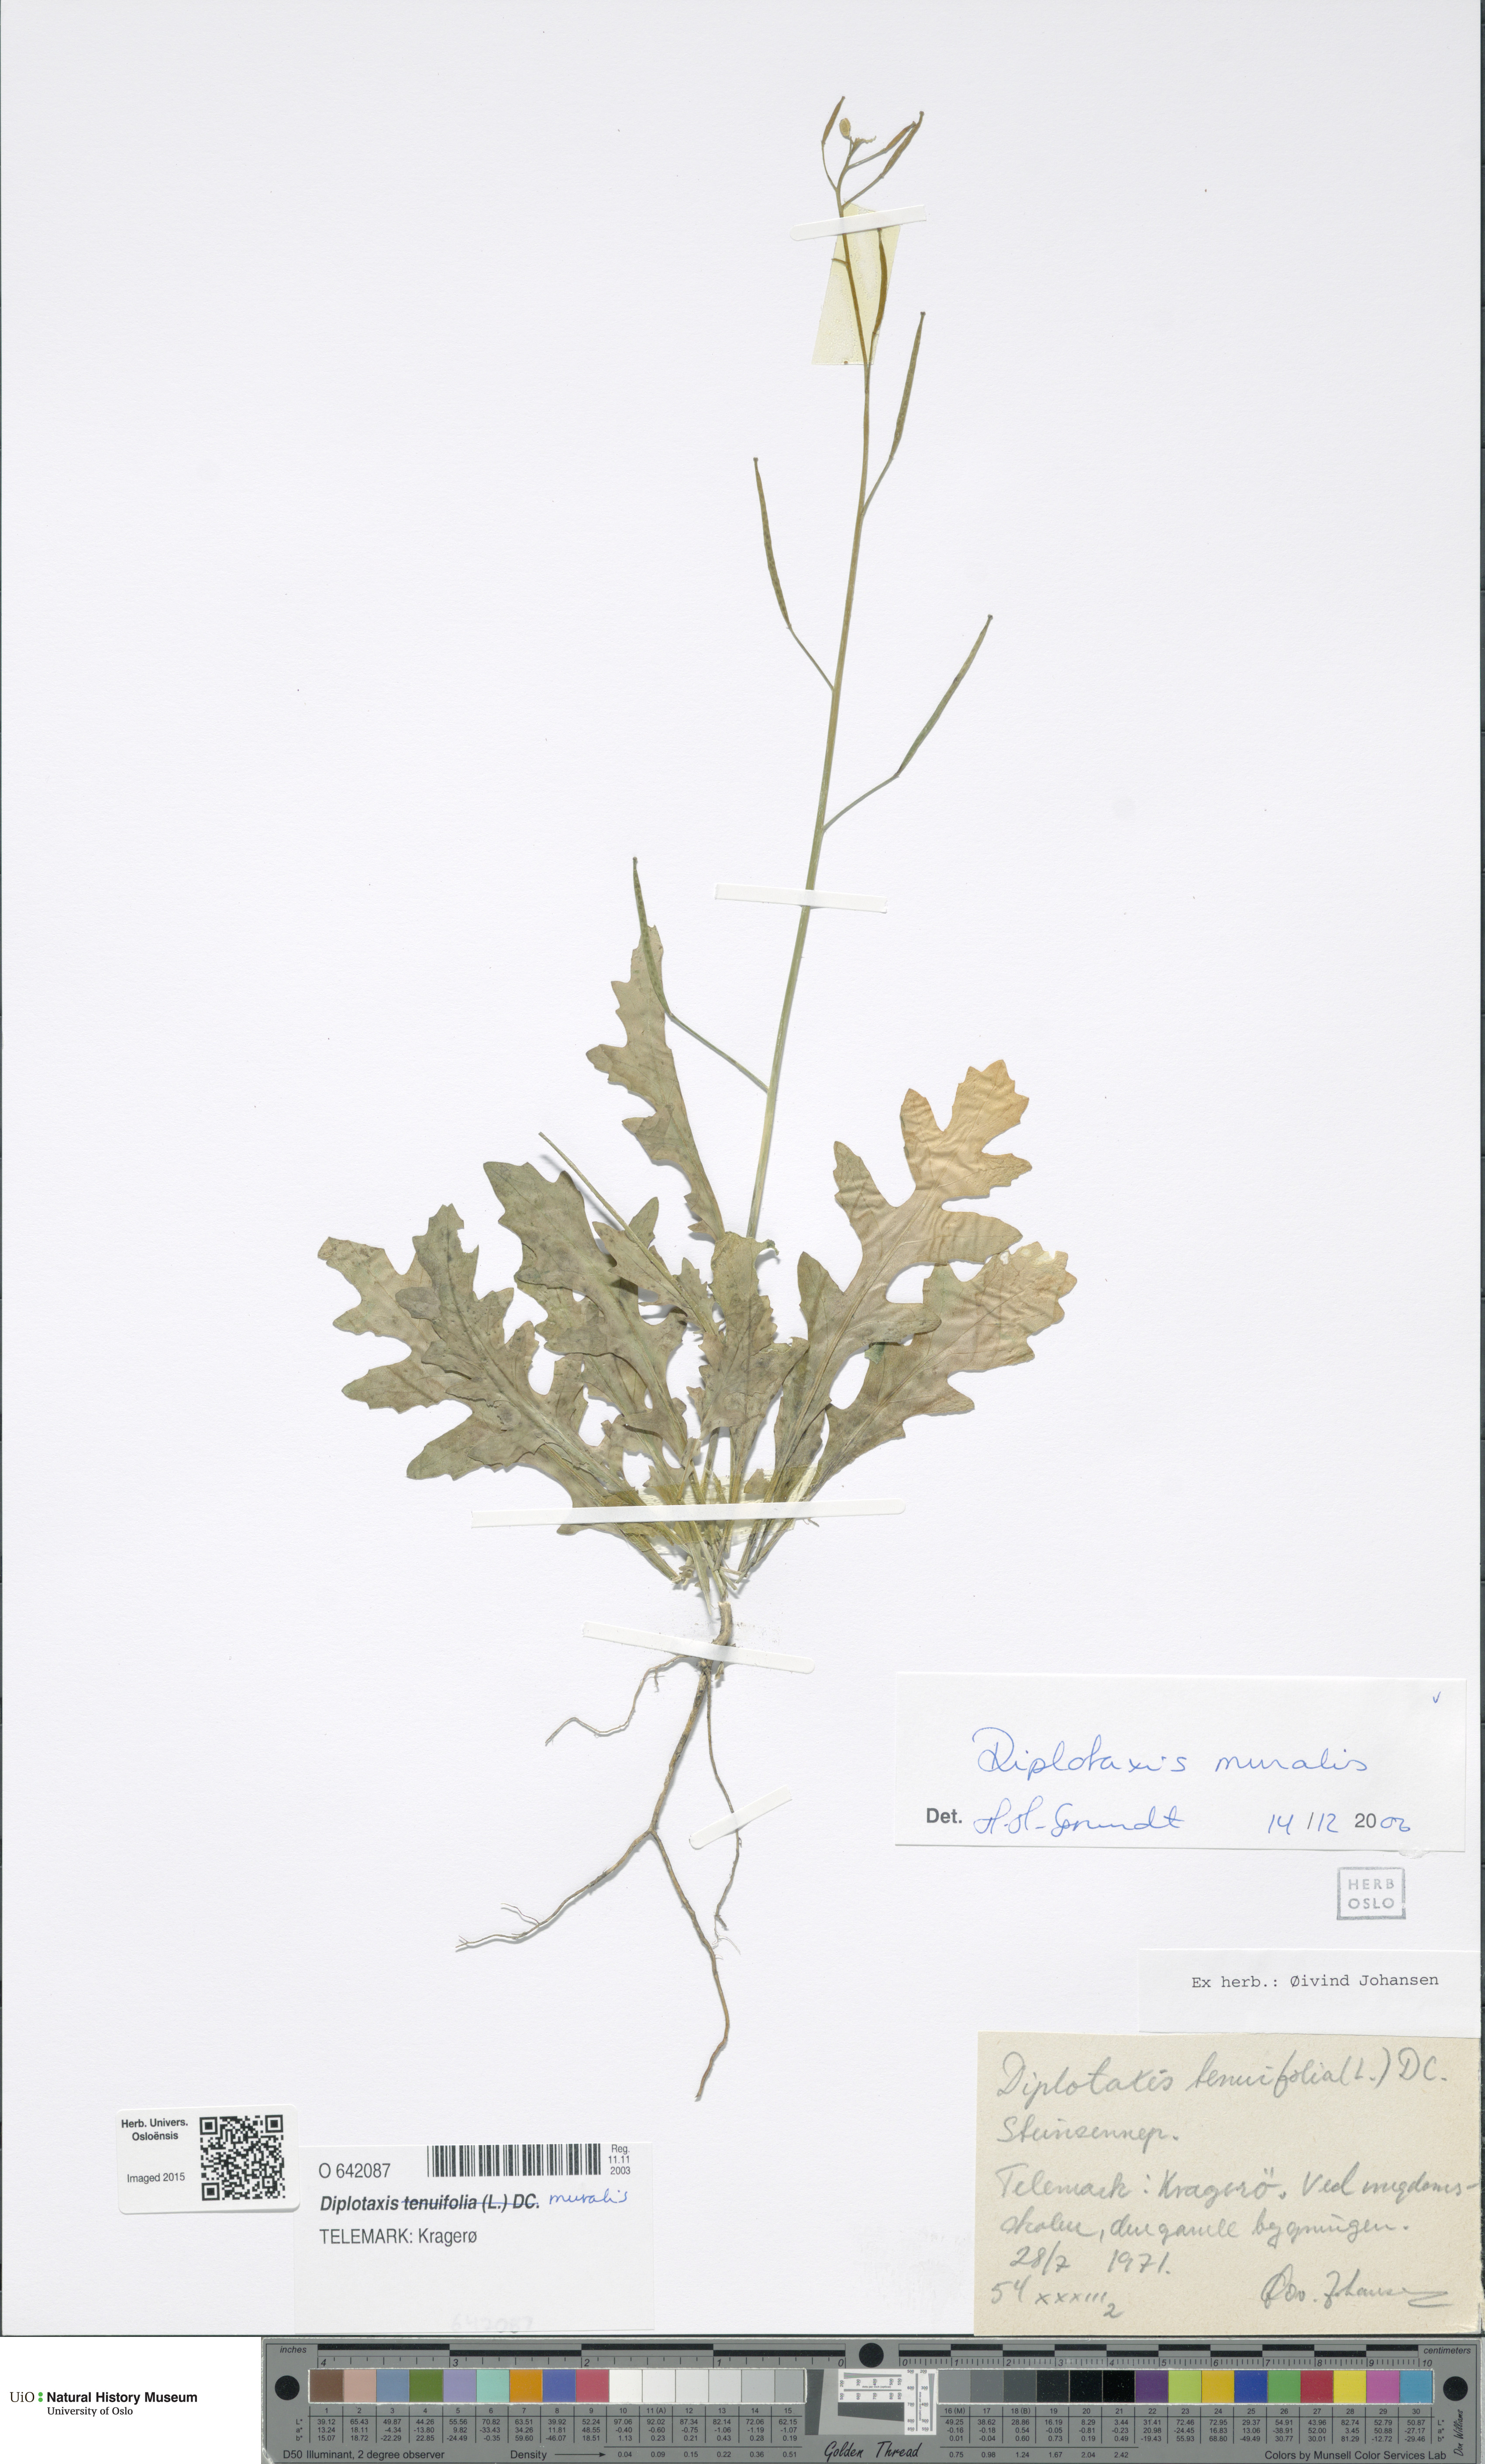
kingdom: Plantae
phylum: Tracheophyta
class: Magnoliopsida
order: Brassicales
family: Brassicaceae
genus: Diplotaxis
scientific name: Diplotaxis muralis
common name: Annual wall-rocket
